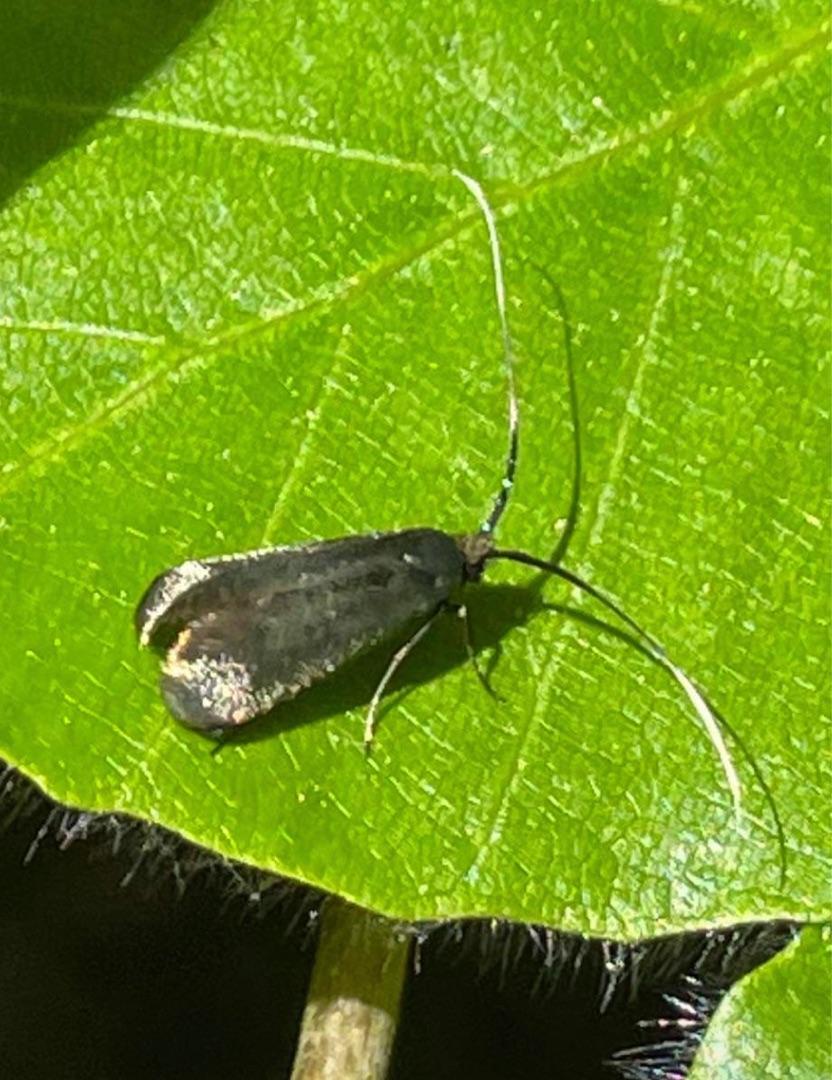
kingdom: Animalia
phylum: Arthropoda
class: Insecta
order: Lepidoptera
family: Adelidae
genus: Adela
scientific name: Adela viridella
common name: Egelanghornsmøl
